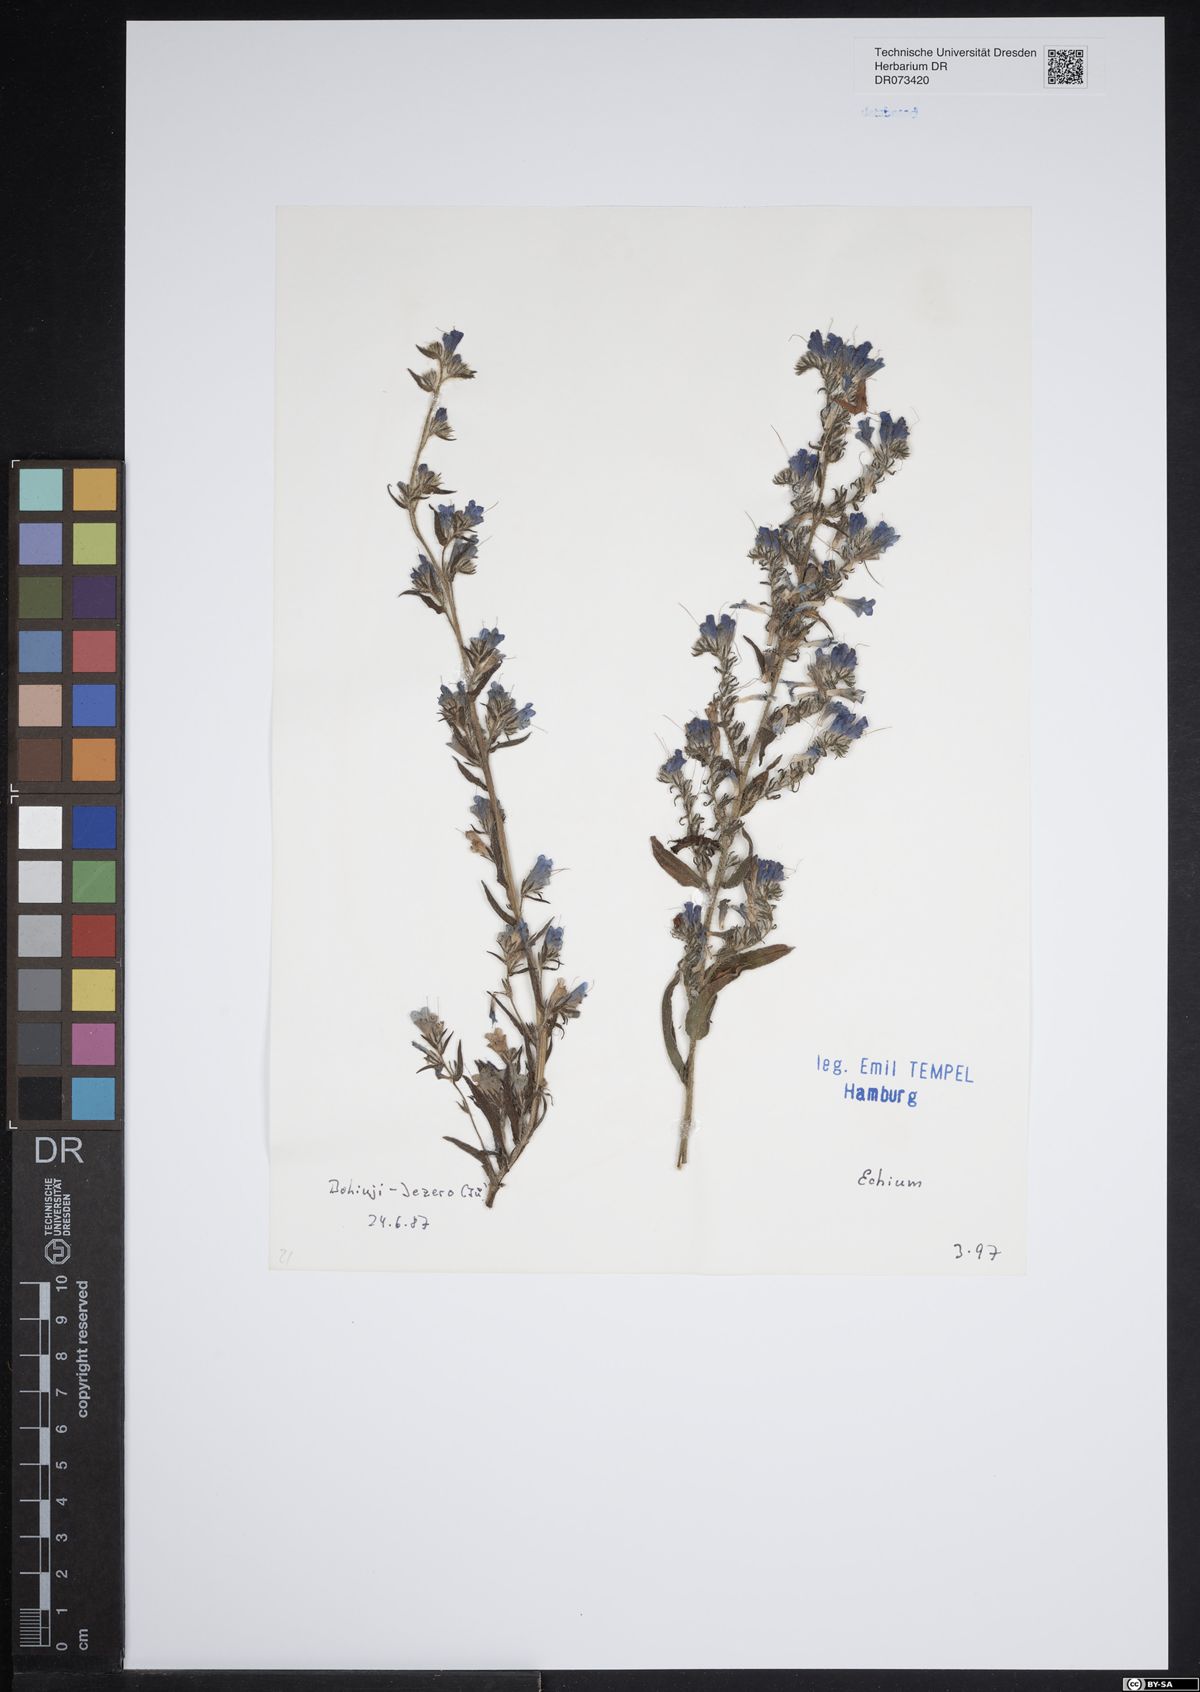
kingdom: Plantae
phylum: Tracheophyta
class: Magnoliopsida
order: Boraginales
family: Boraginaceae
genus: Echium
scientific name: Echium
